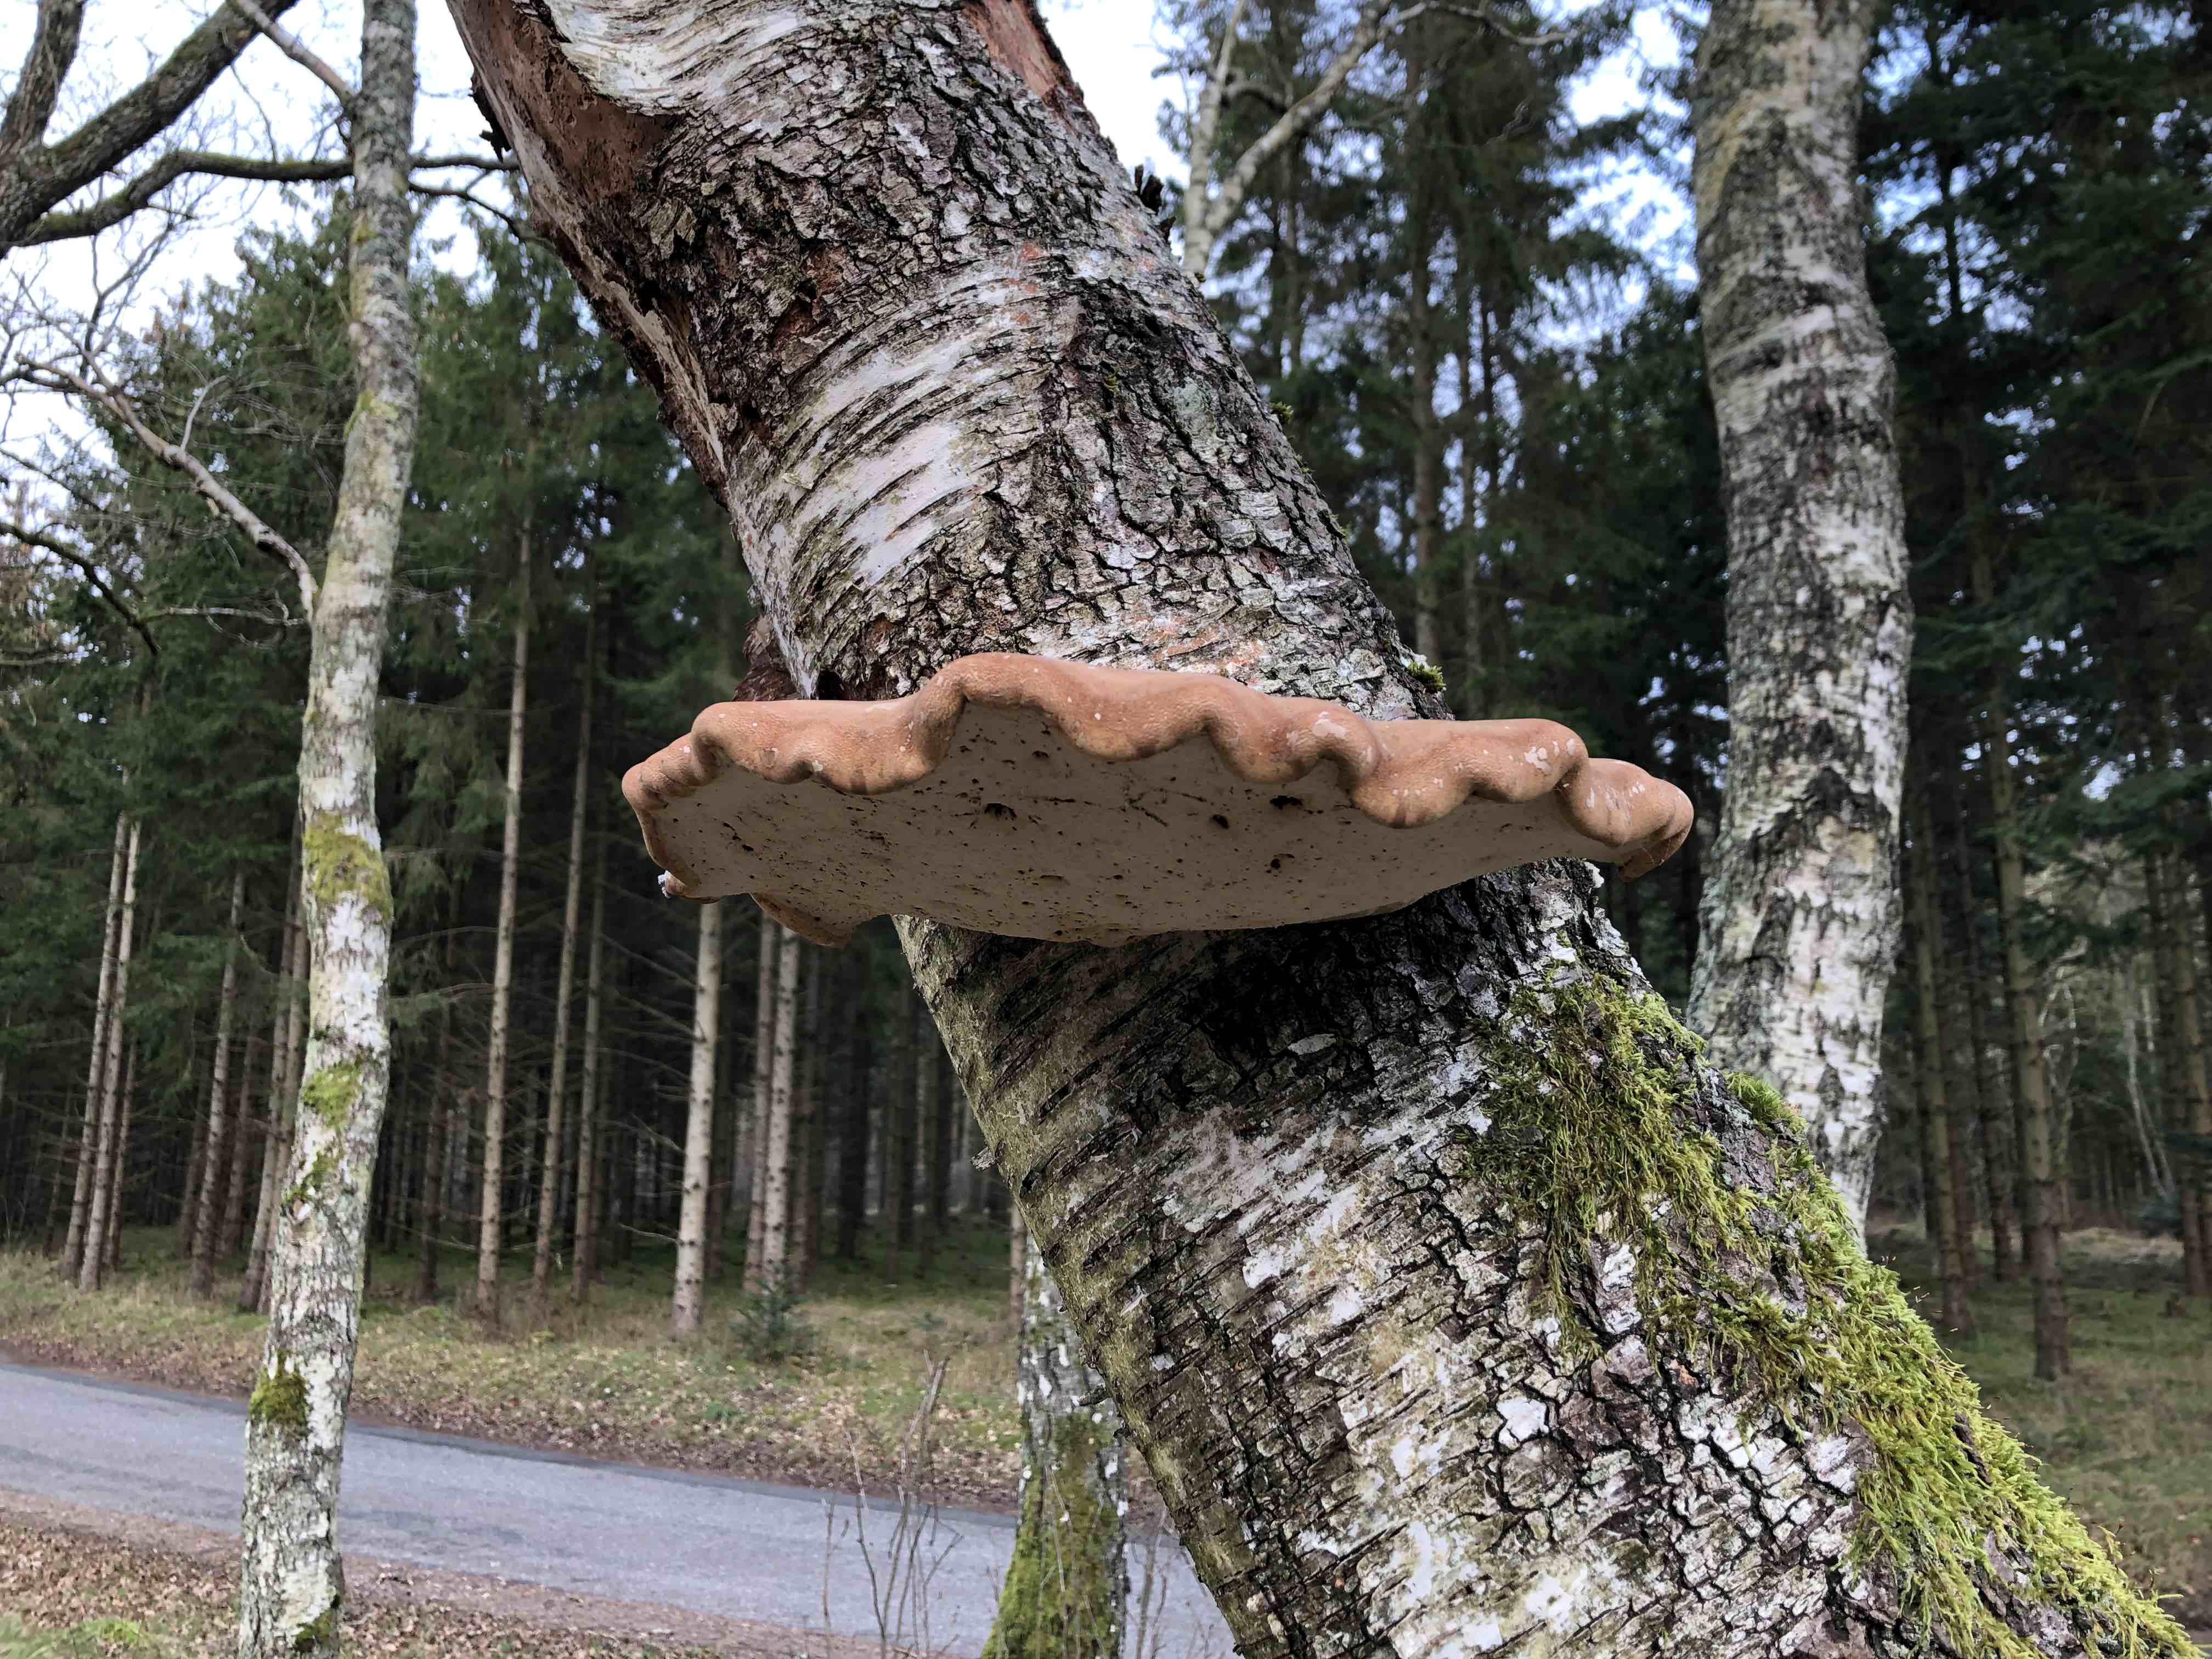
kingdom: Fungi
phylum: Basidiomycota
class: Agaricomycetes
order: Polyporales
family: Fomitopsidaceae
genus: Fomitopsis
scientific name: Fomitopsis betulina
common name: birkeporesvamp
